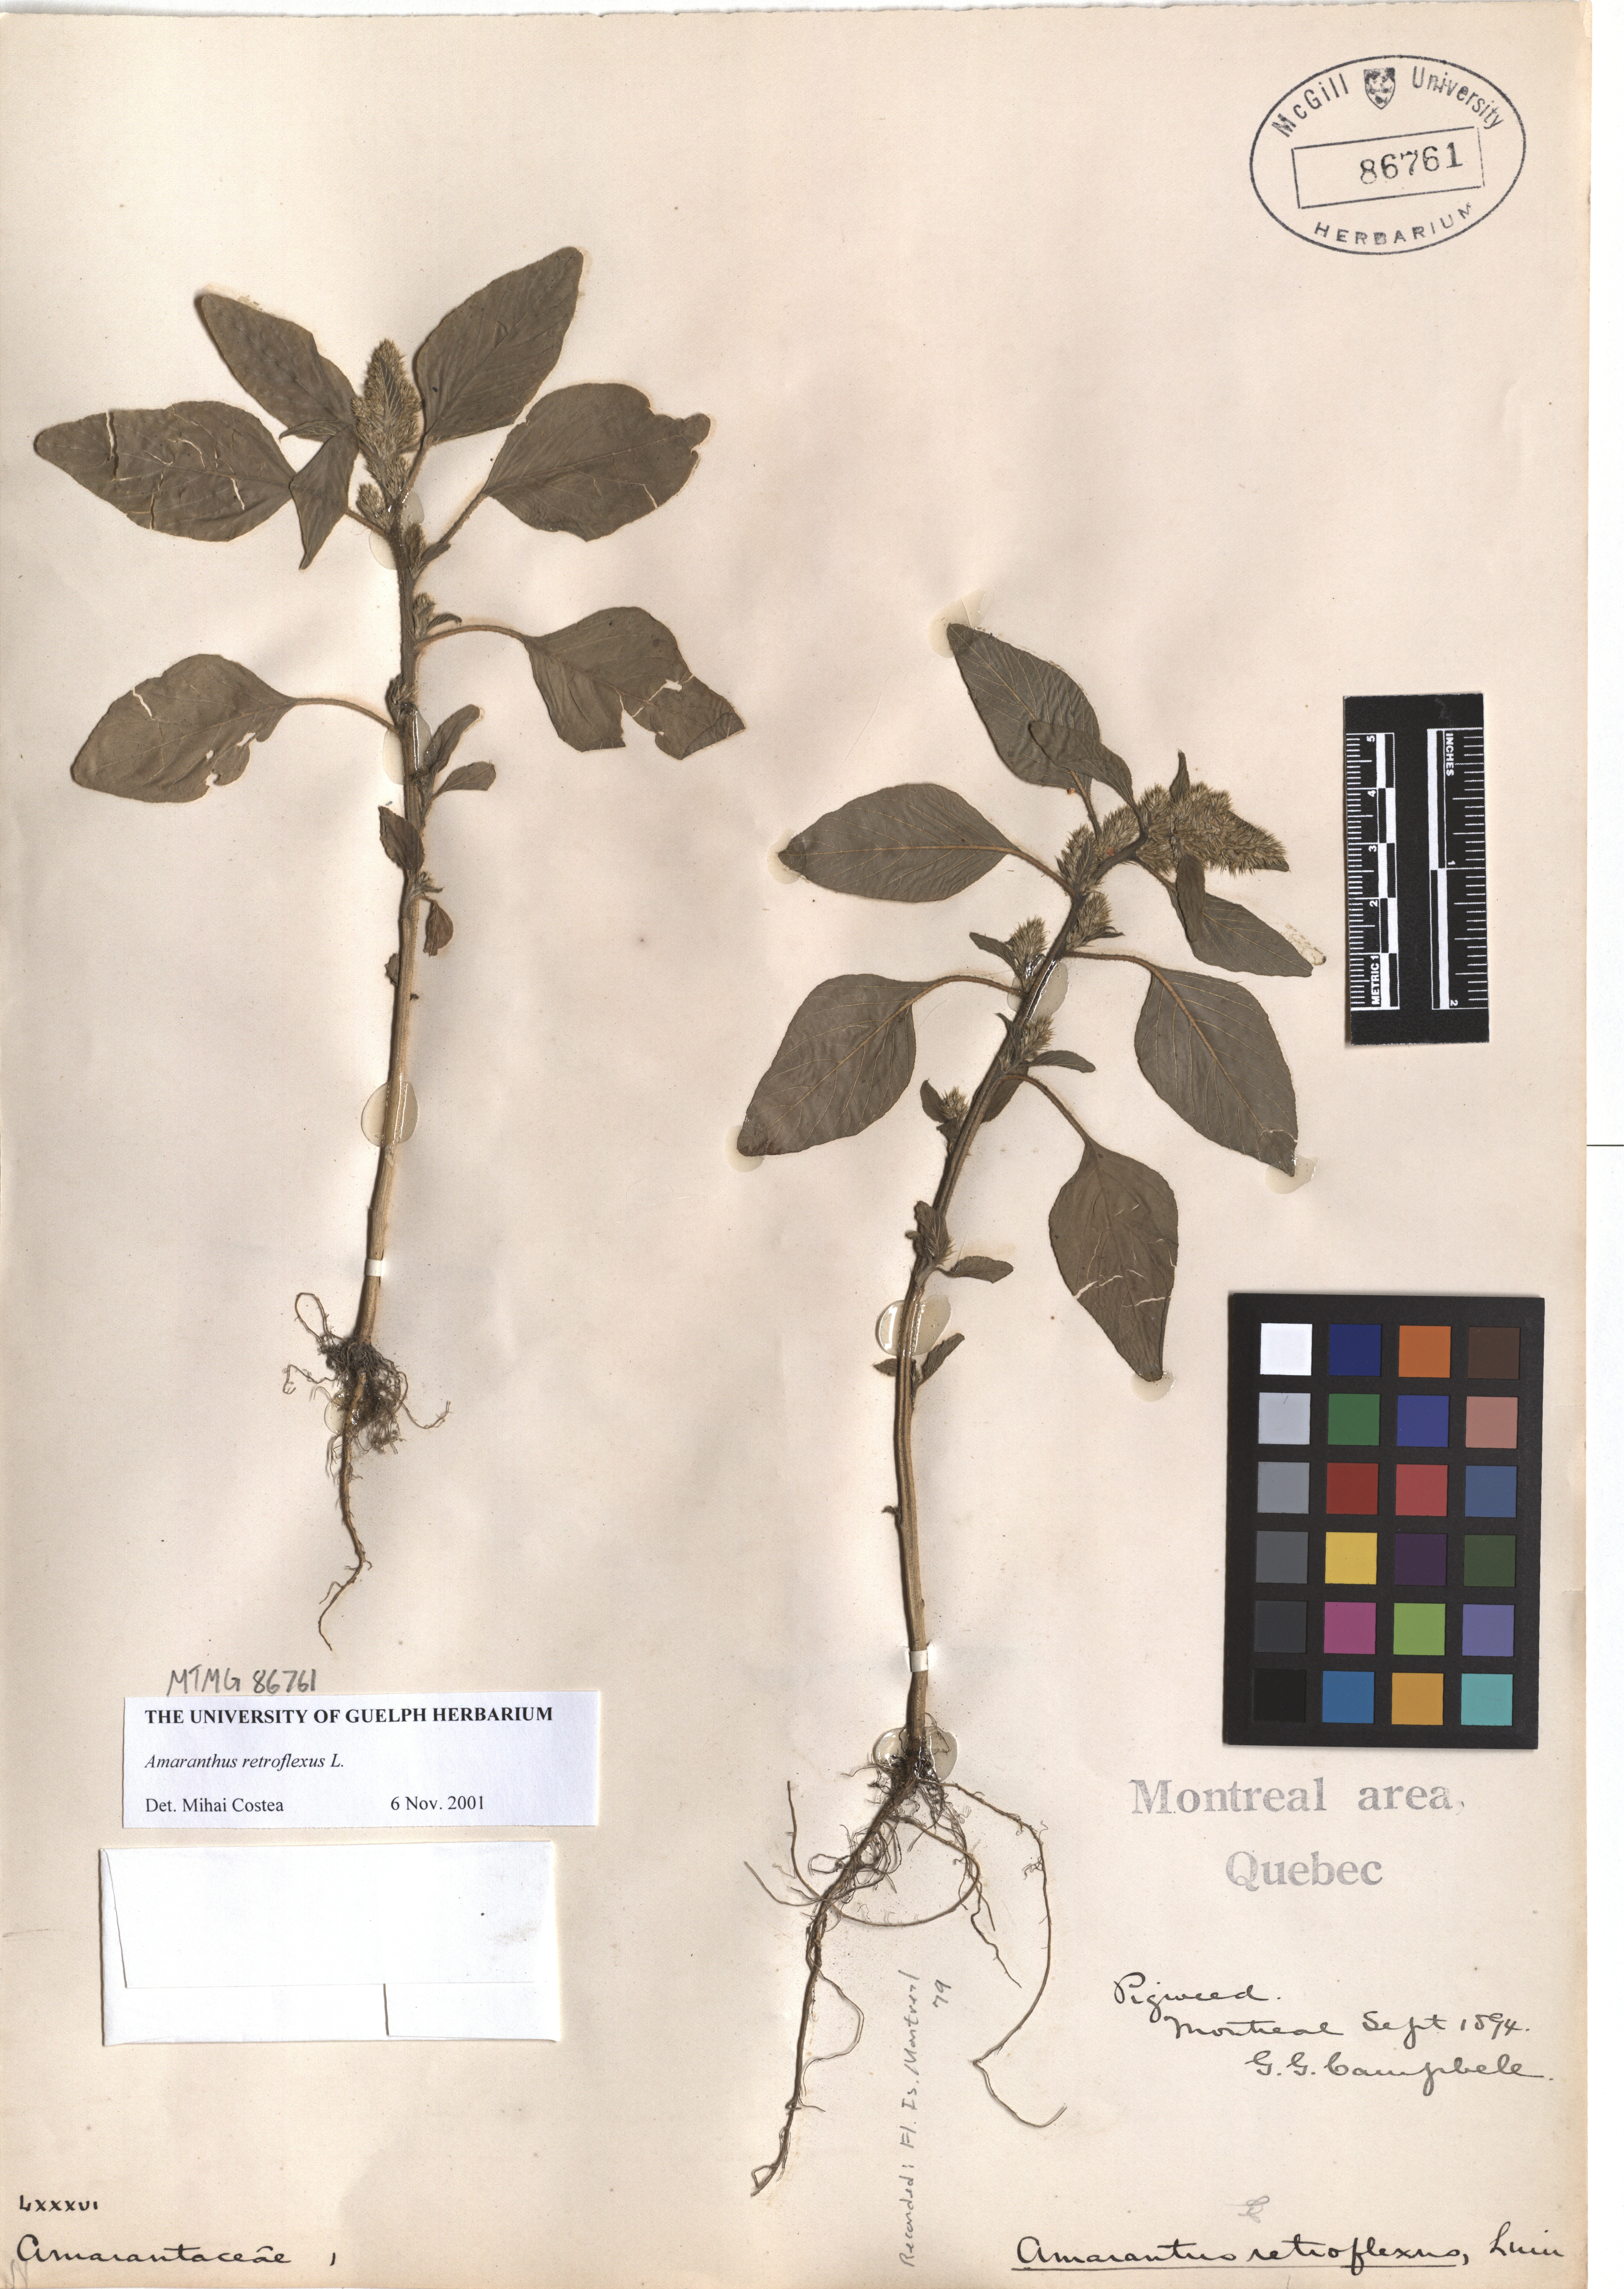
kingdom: Plantae
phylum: Tracheophyta
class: Magnoliopsida
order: Caryophyllales
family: Amaranthaceae
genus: Amaranthus
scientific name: Amaranthus retroflexus
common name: Redroot amaranth
